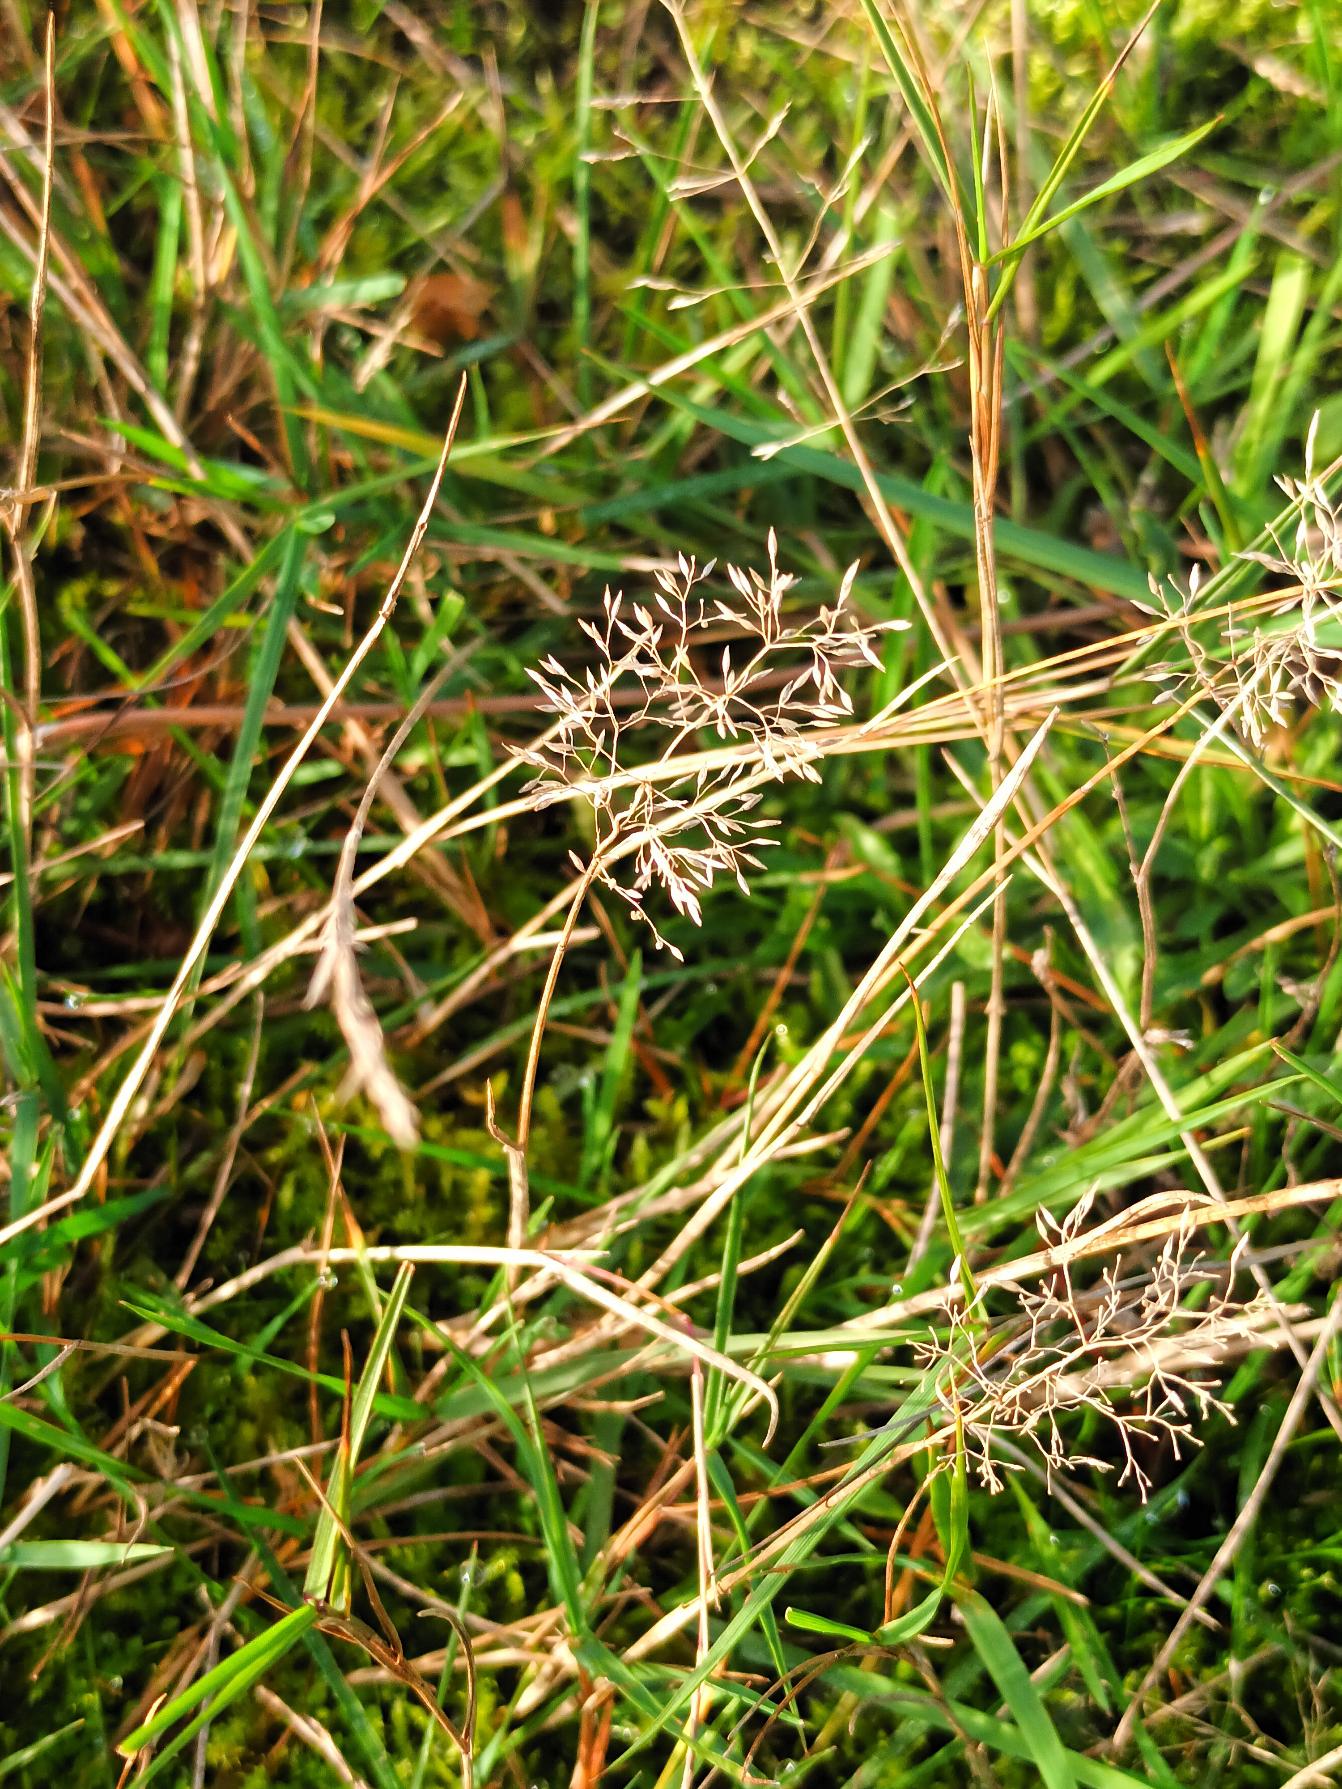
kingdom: Plantae
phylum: Tracheophyta
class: Liliopsida
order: Poales
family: Poaceae
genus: Agrostis
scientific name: Agrostis capillaris
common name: Almindelig hvene
